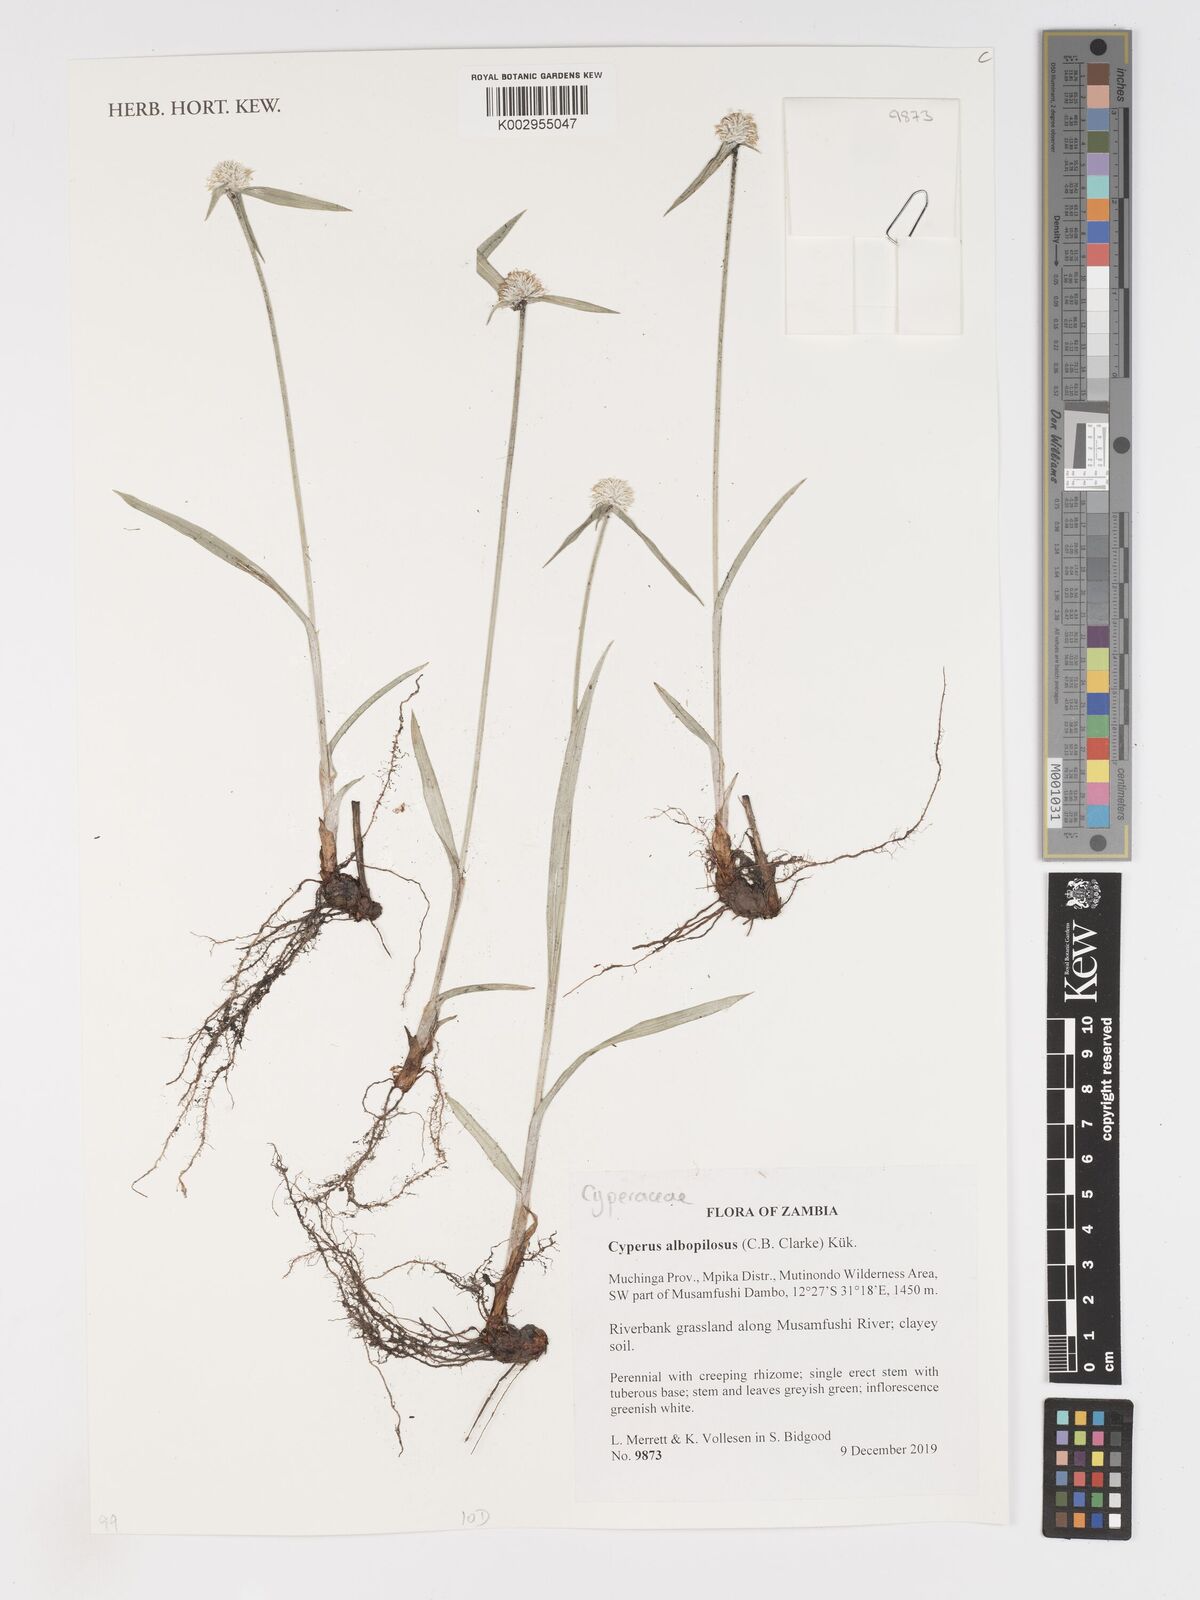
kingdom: Plantae
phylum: Tracheophyta
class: Liliopsida
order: Poales
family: Cyperaceae
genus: Cyperus
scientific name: Cyperus albopilosus
